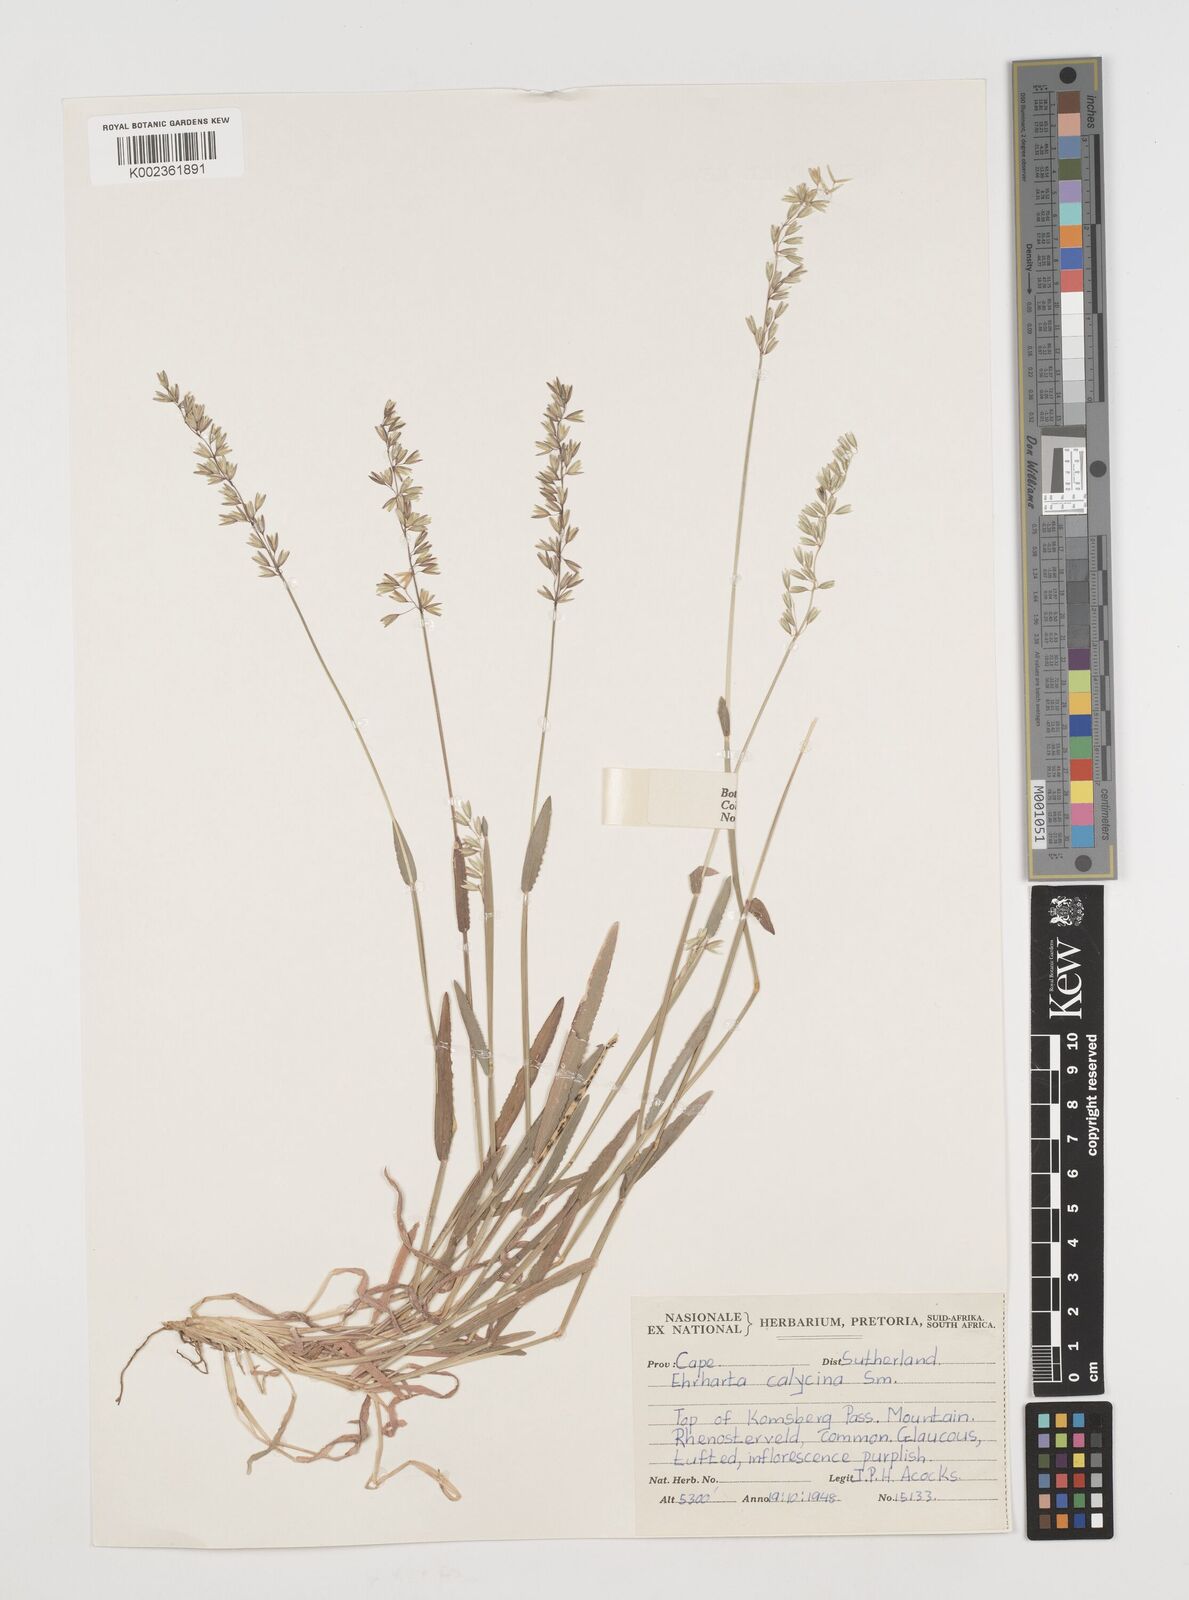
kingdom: Plantae
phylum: Tracheophyta
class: Liliopsida
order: Poales
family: Poaceae
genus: Ehrharta
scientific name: Ehrharta calycina
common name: Perennial veldtgrass
